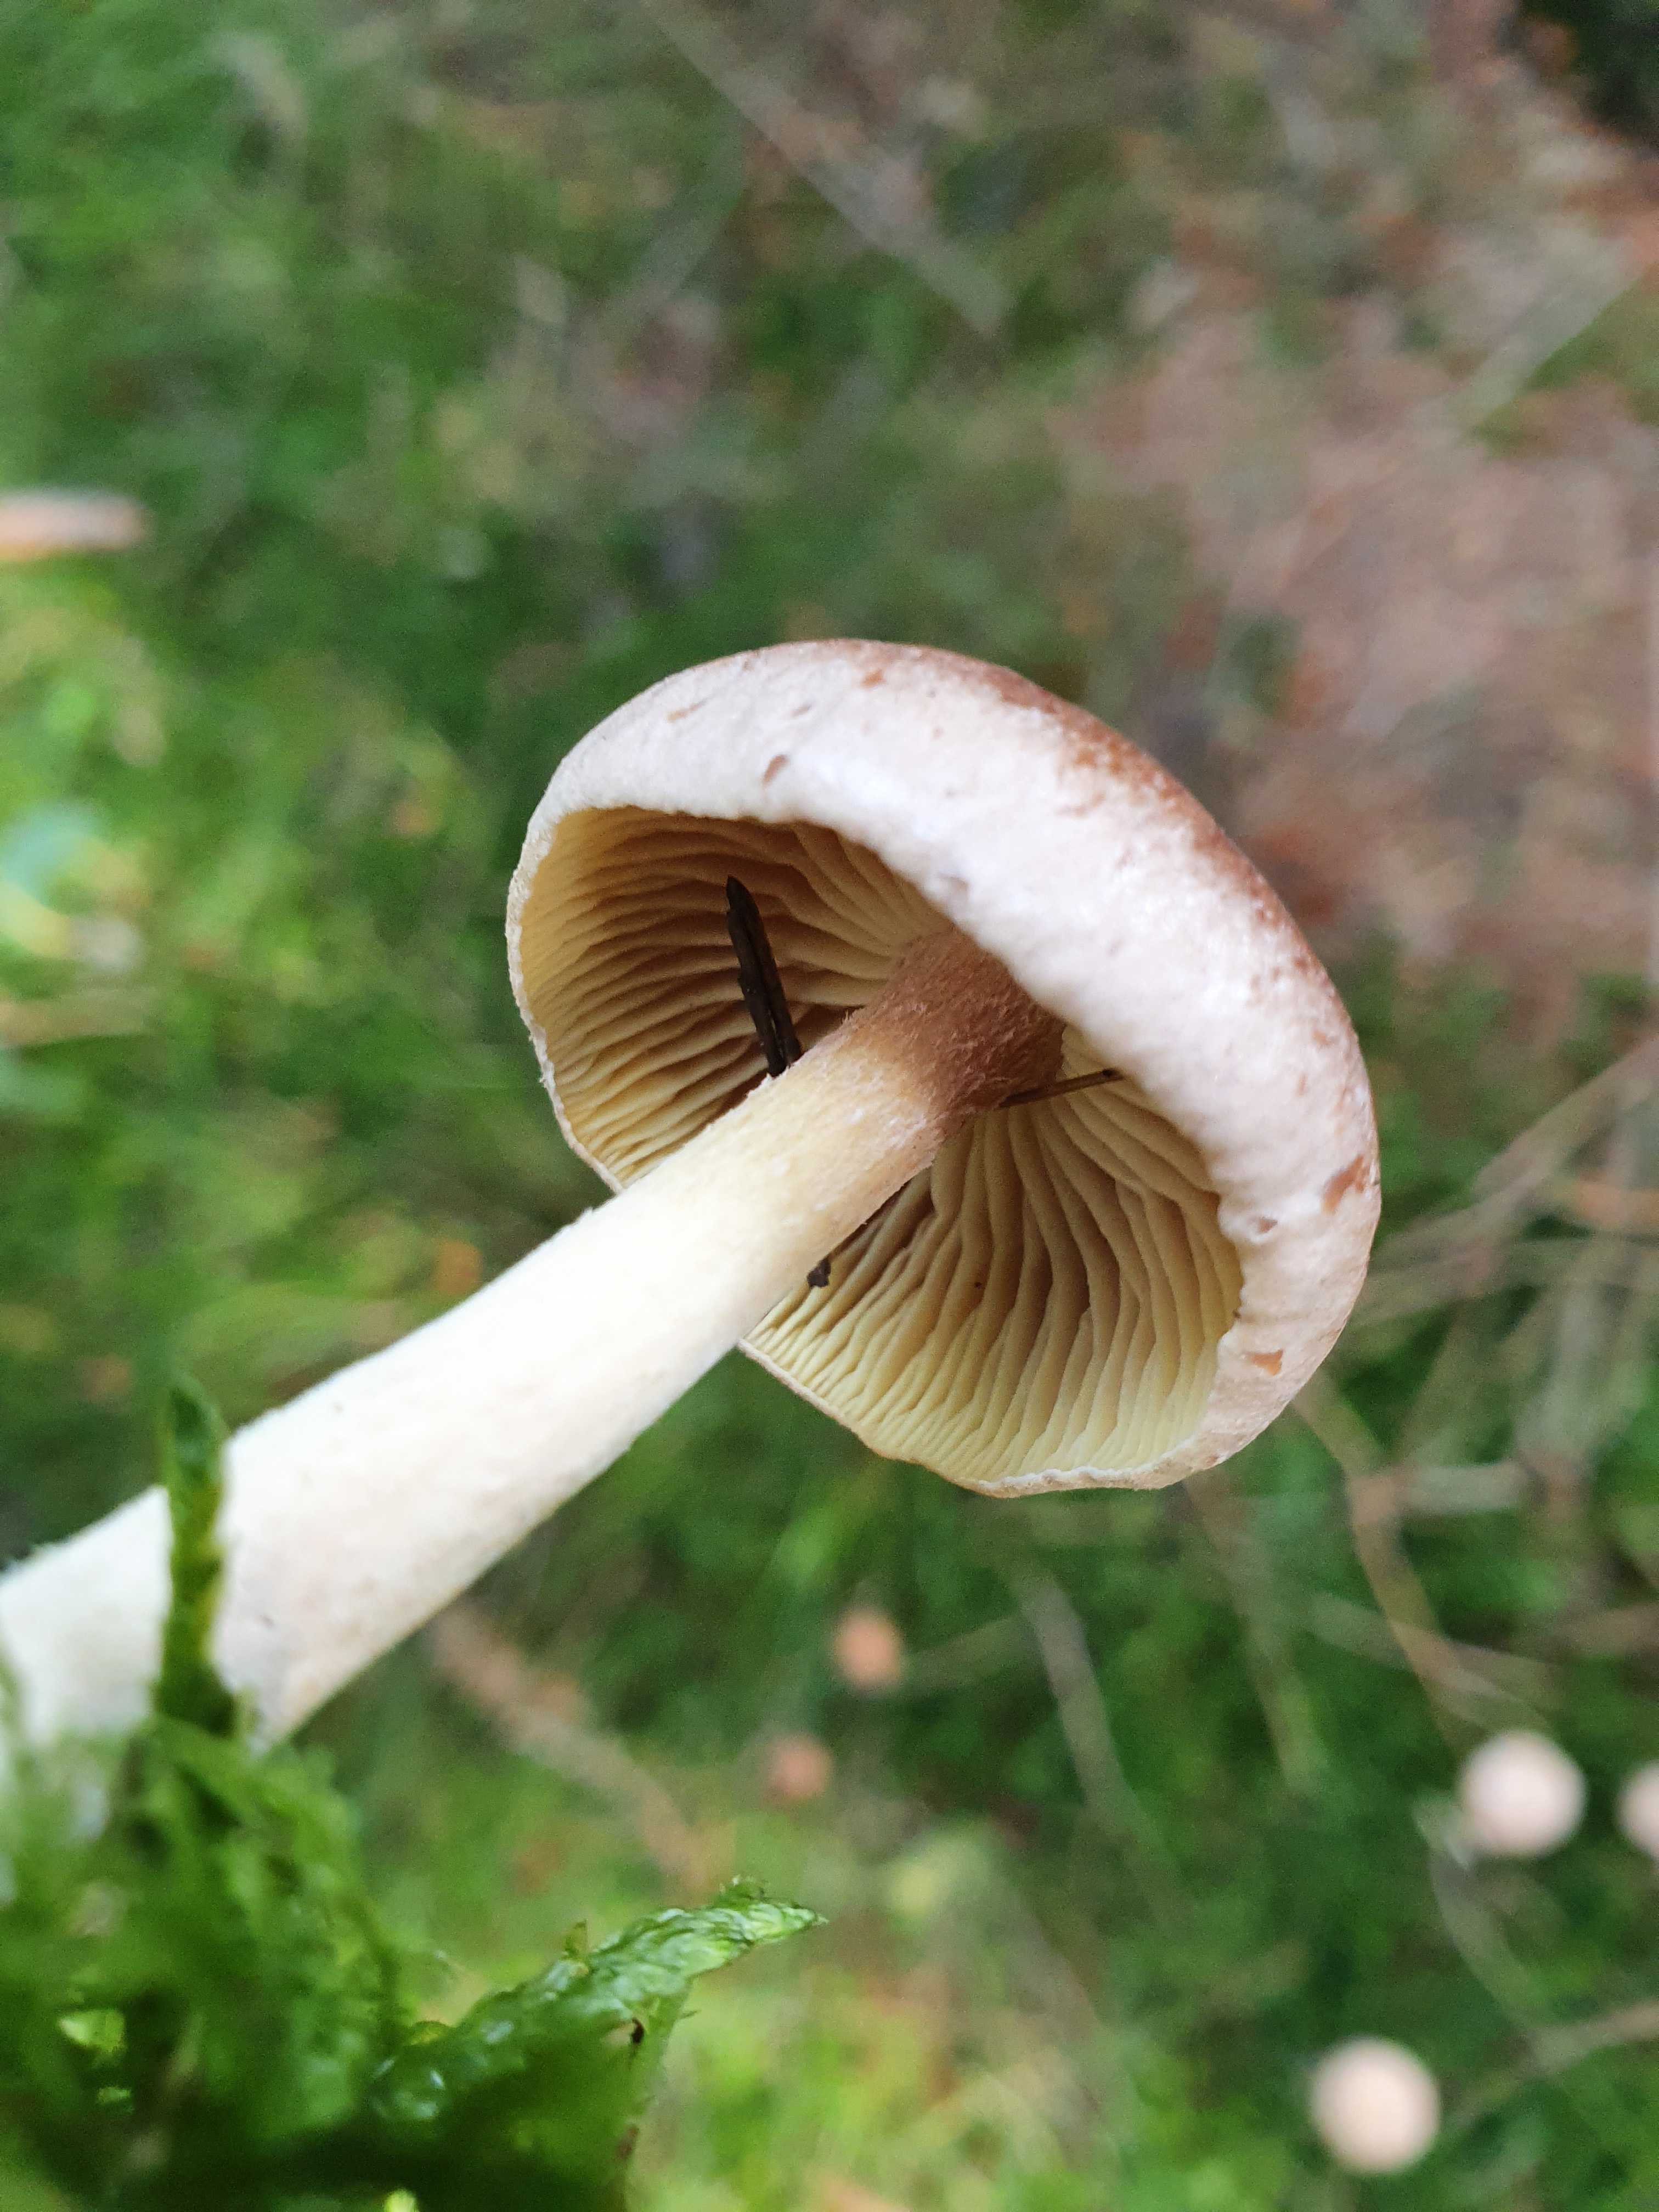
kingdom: Fungi
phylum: Basidiomycota
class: Agaricomycetes
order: Agaricales
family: Omphalotaceae
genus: Collybiopsis
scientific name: Collybiopsis peronata
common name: bestøvlet fladhat
